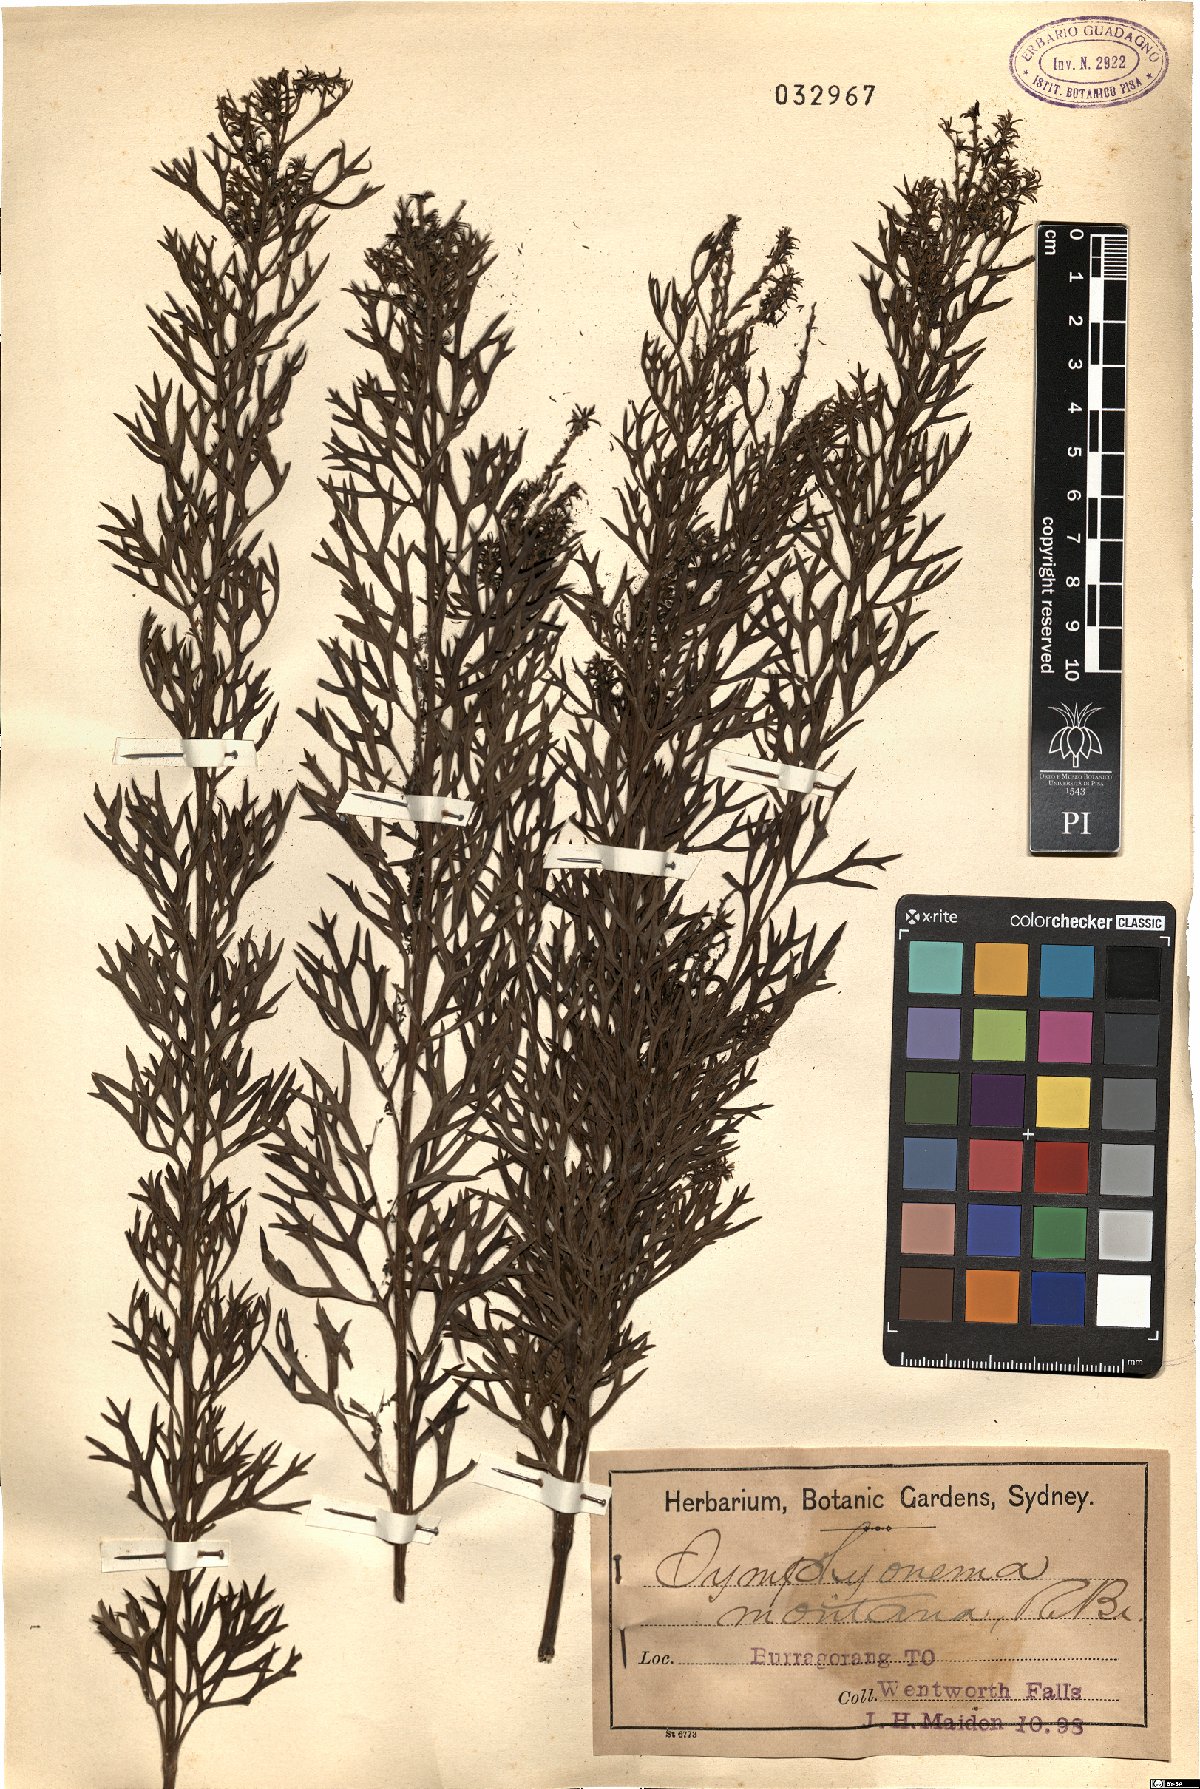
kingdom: Plantae
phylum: Tracheophyta
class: Magnoliopsida
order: Proteales
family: Proteaceae
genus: Symphionema
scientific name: Symphionema montanum
